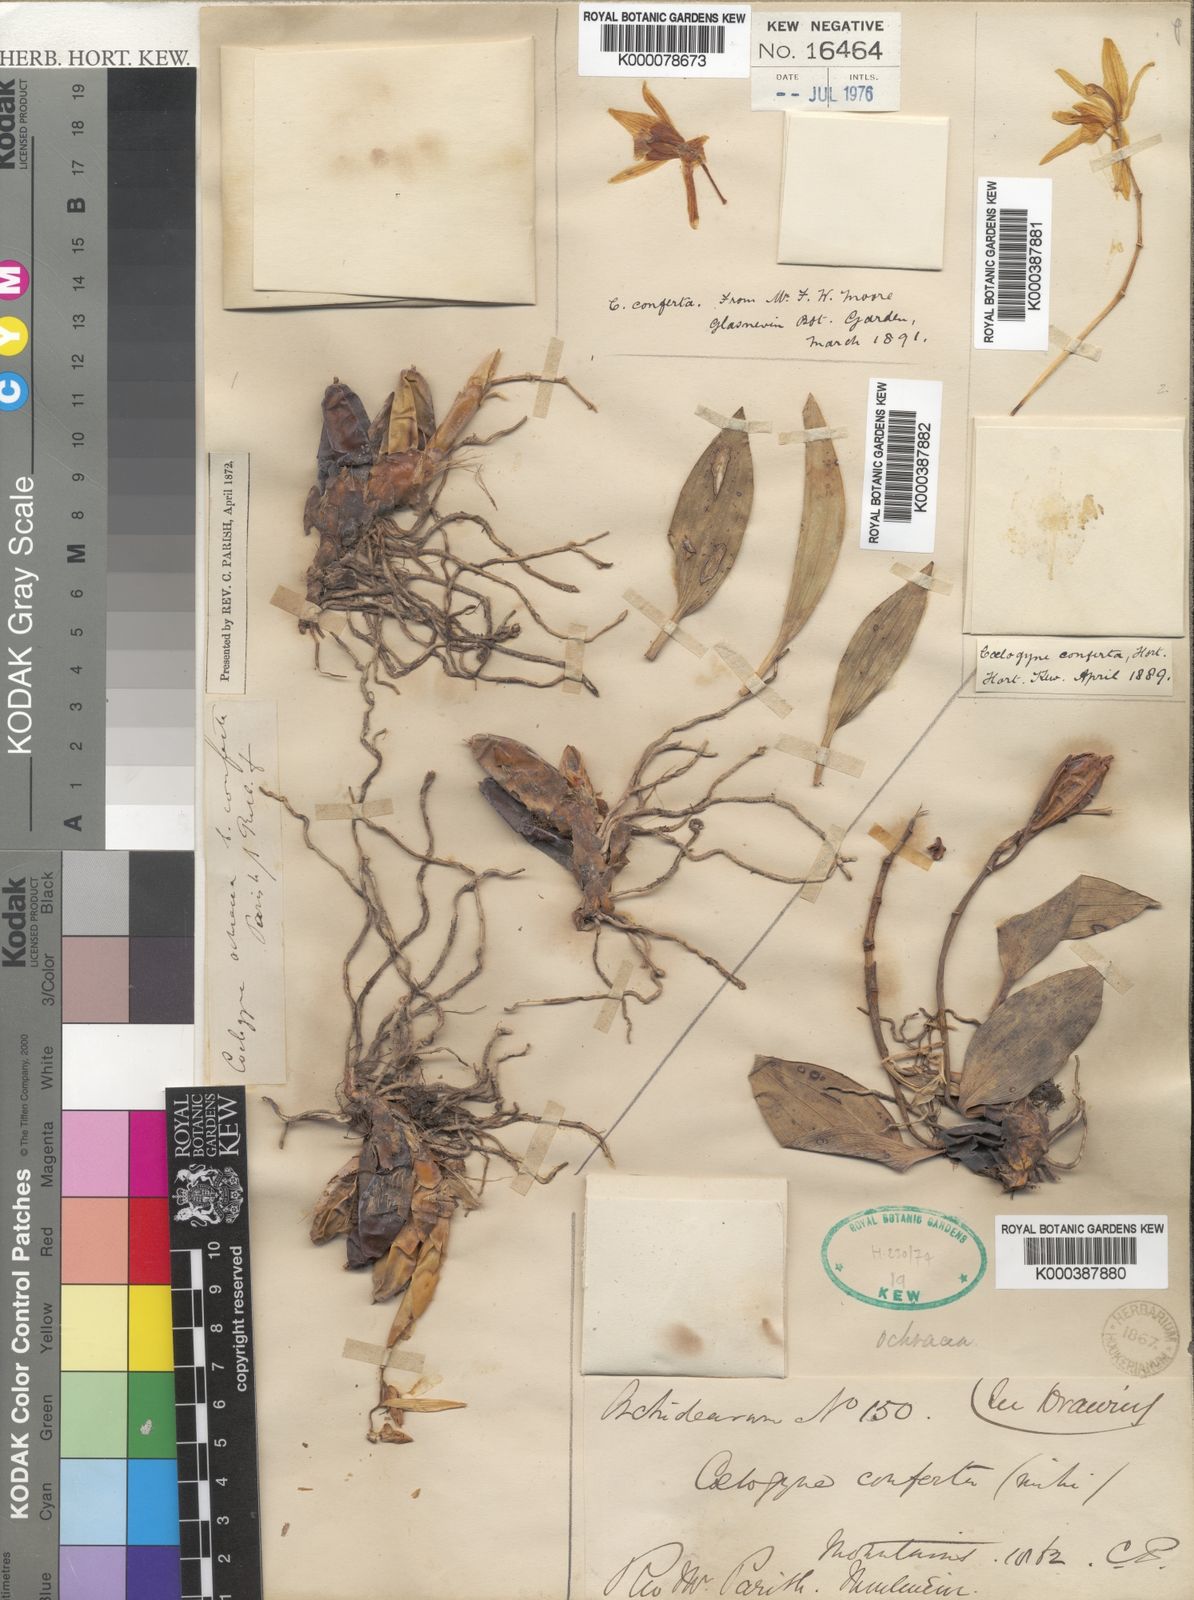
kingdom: Plantae
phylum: Tracheophyta
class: Liliopsida
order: Asparagales
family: Orchidaceae
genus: Coelogyne
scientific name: Coelogyne nitida
